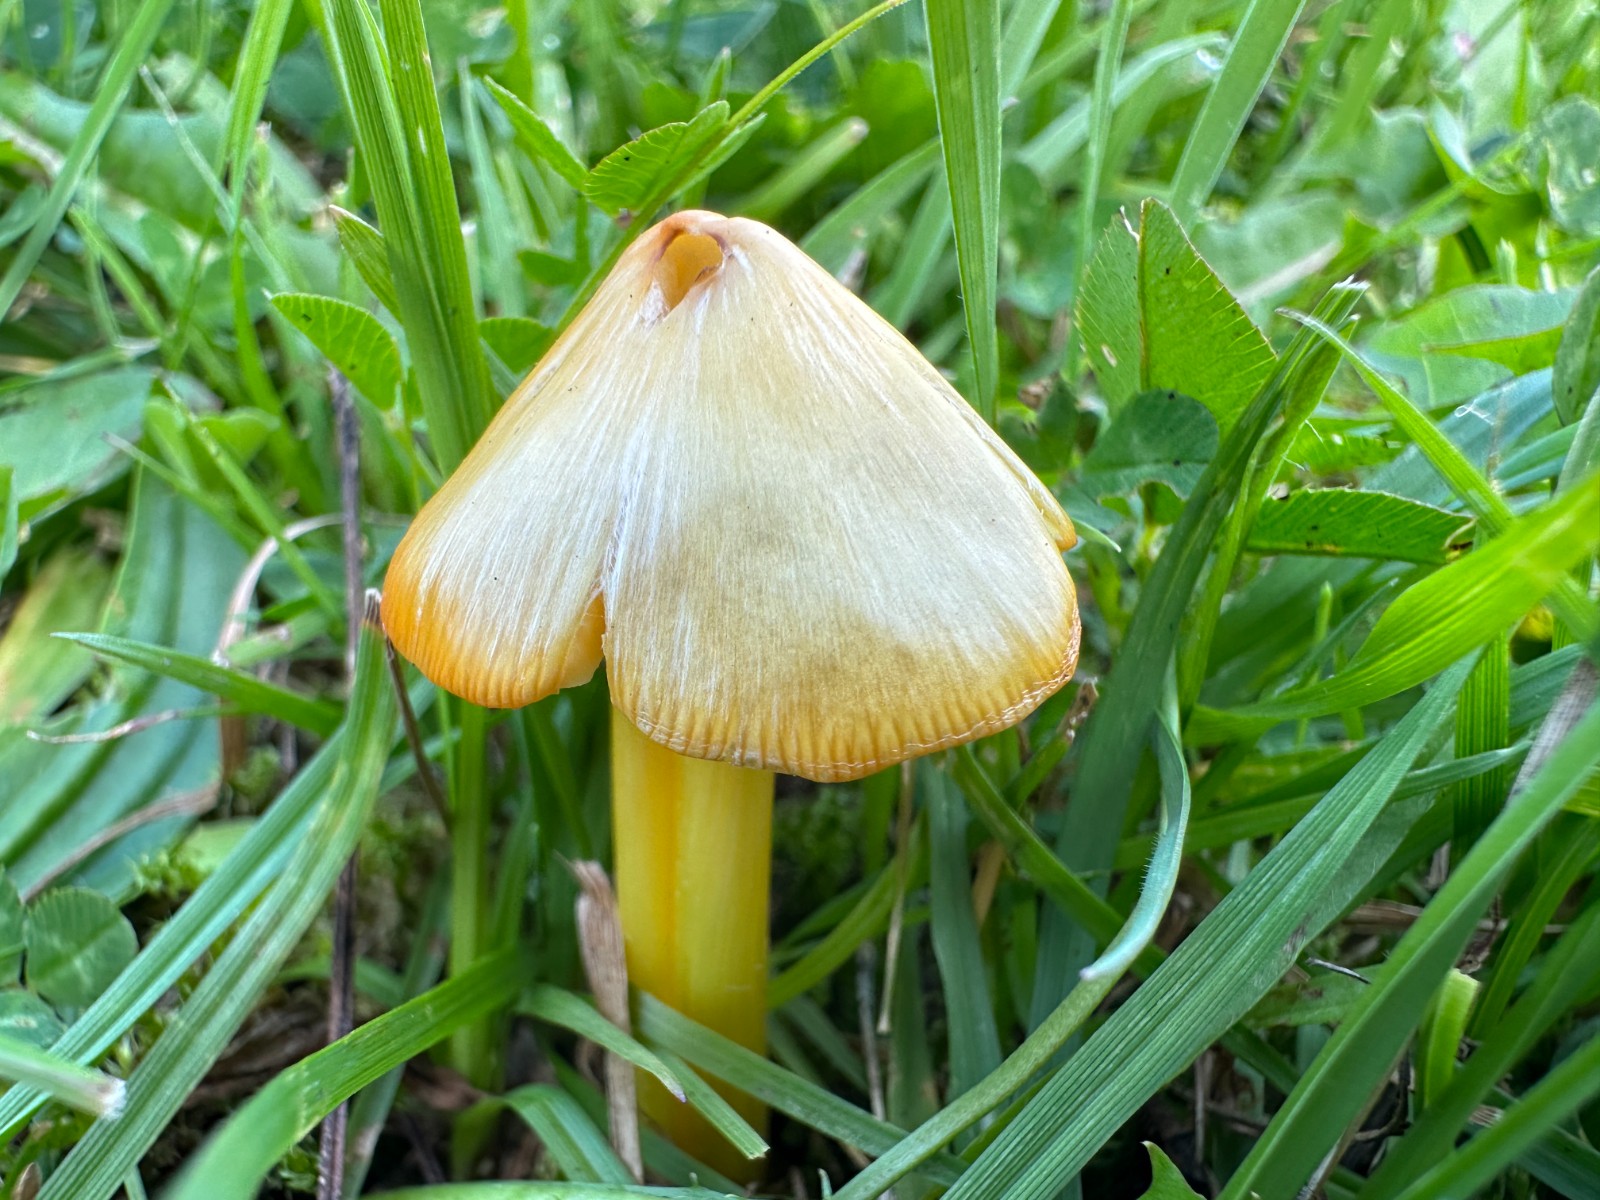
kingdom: Fungi
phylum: Basidiomycota
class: Agaricomycetes
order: Agaricales
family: Hygrophoraceae
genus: Hygrocybe
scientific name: Hygrocybe acutoconica
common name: spidspuklet vokshat
